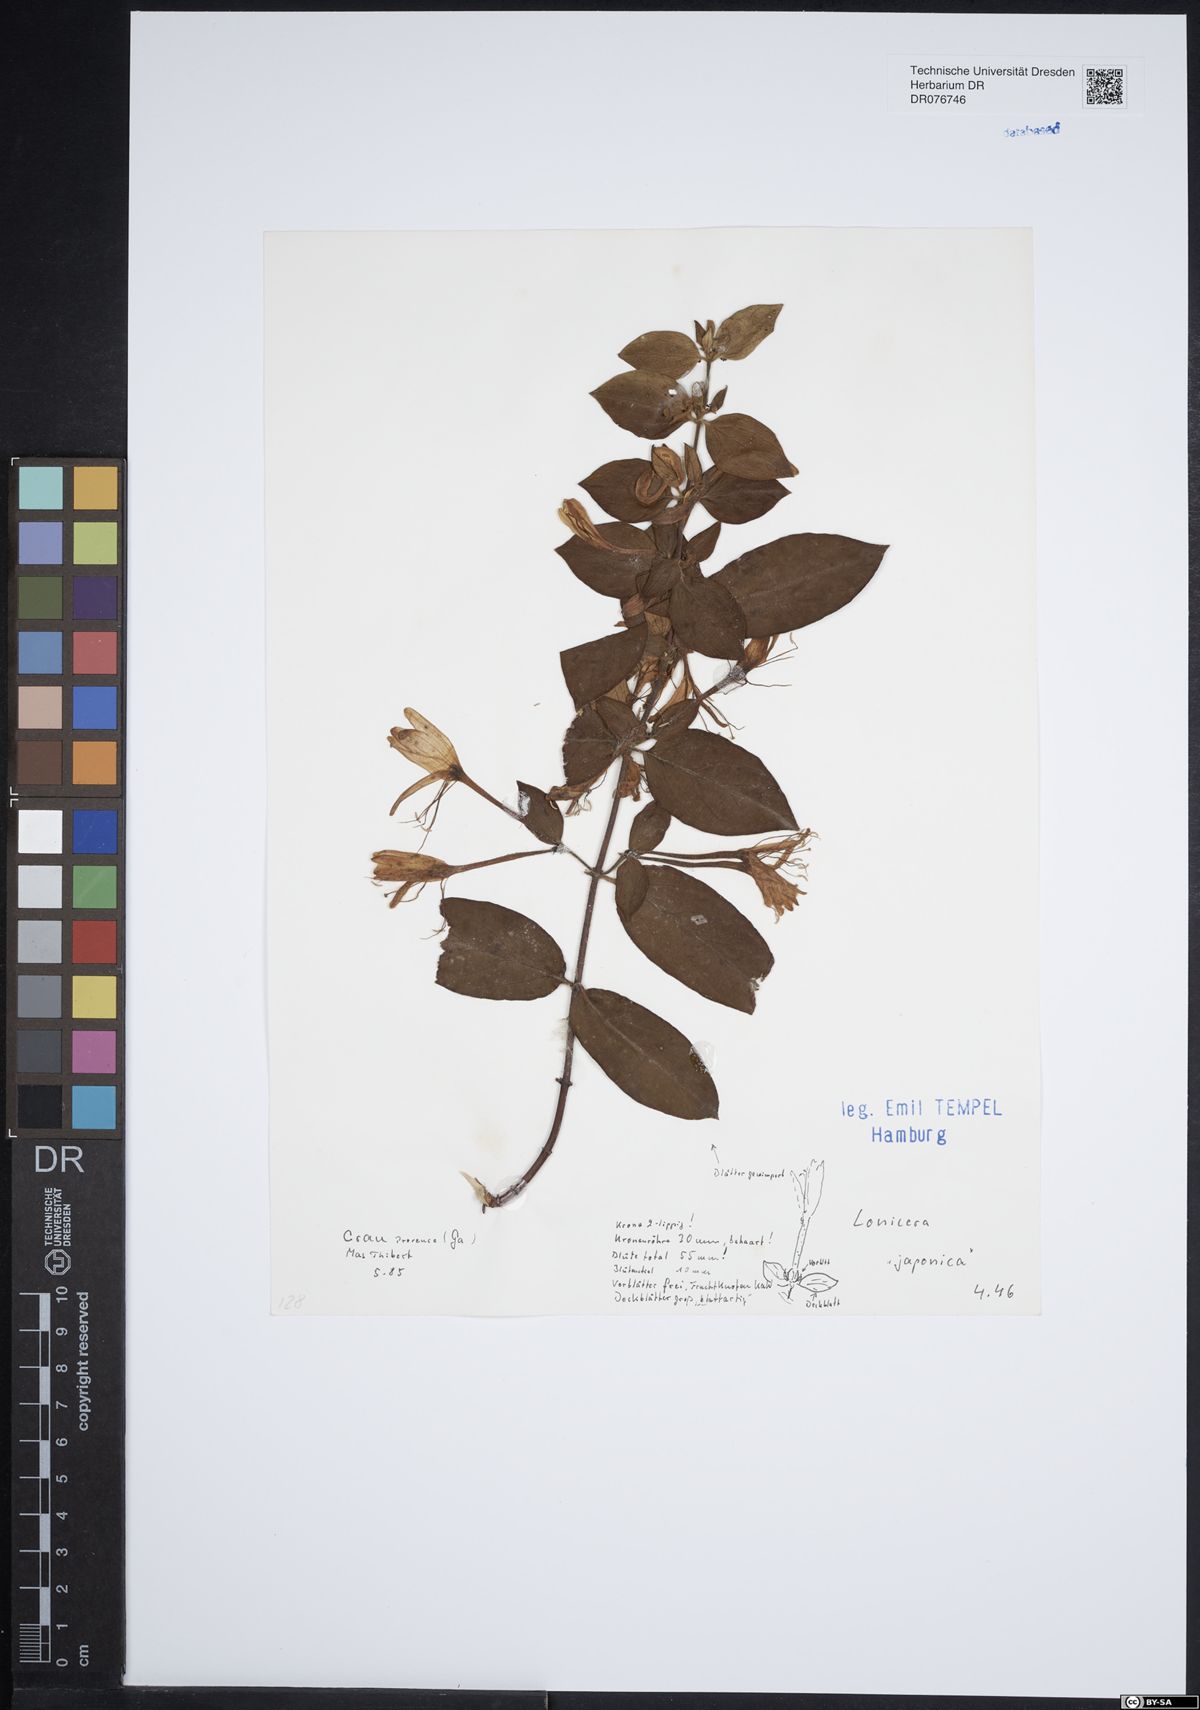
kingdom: Plantae
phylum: Tracheophyta
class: Magnoliopsida
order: Dipsacales
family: Caprifoliaceae
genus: Lonicera
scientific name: Lonicera japonica
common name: Japanese honeysuckle
